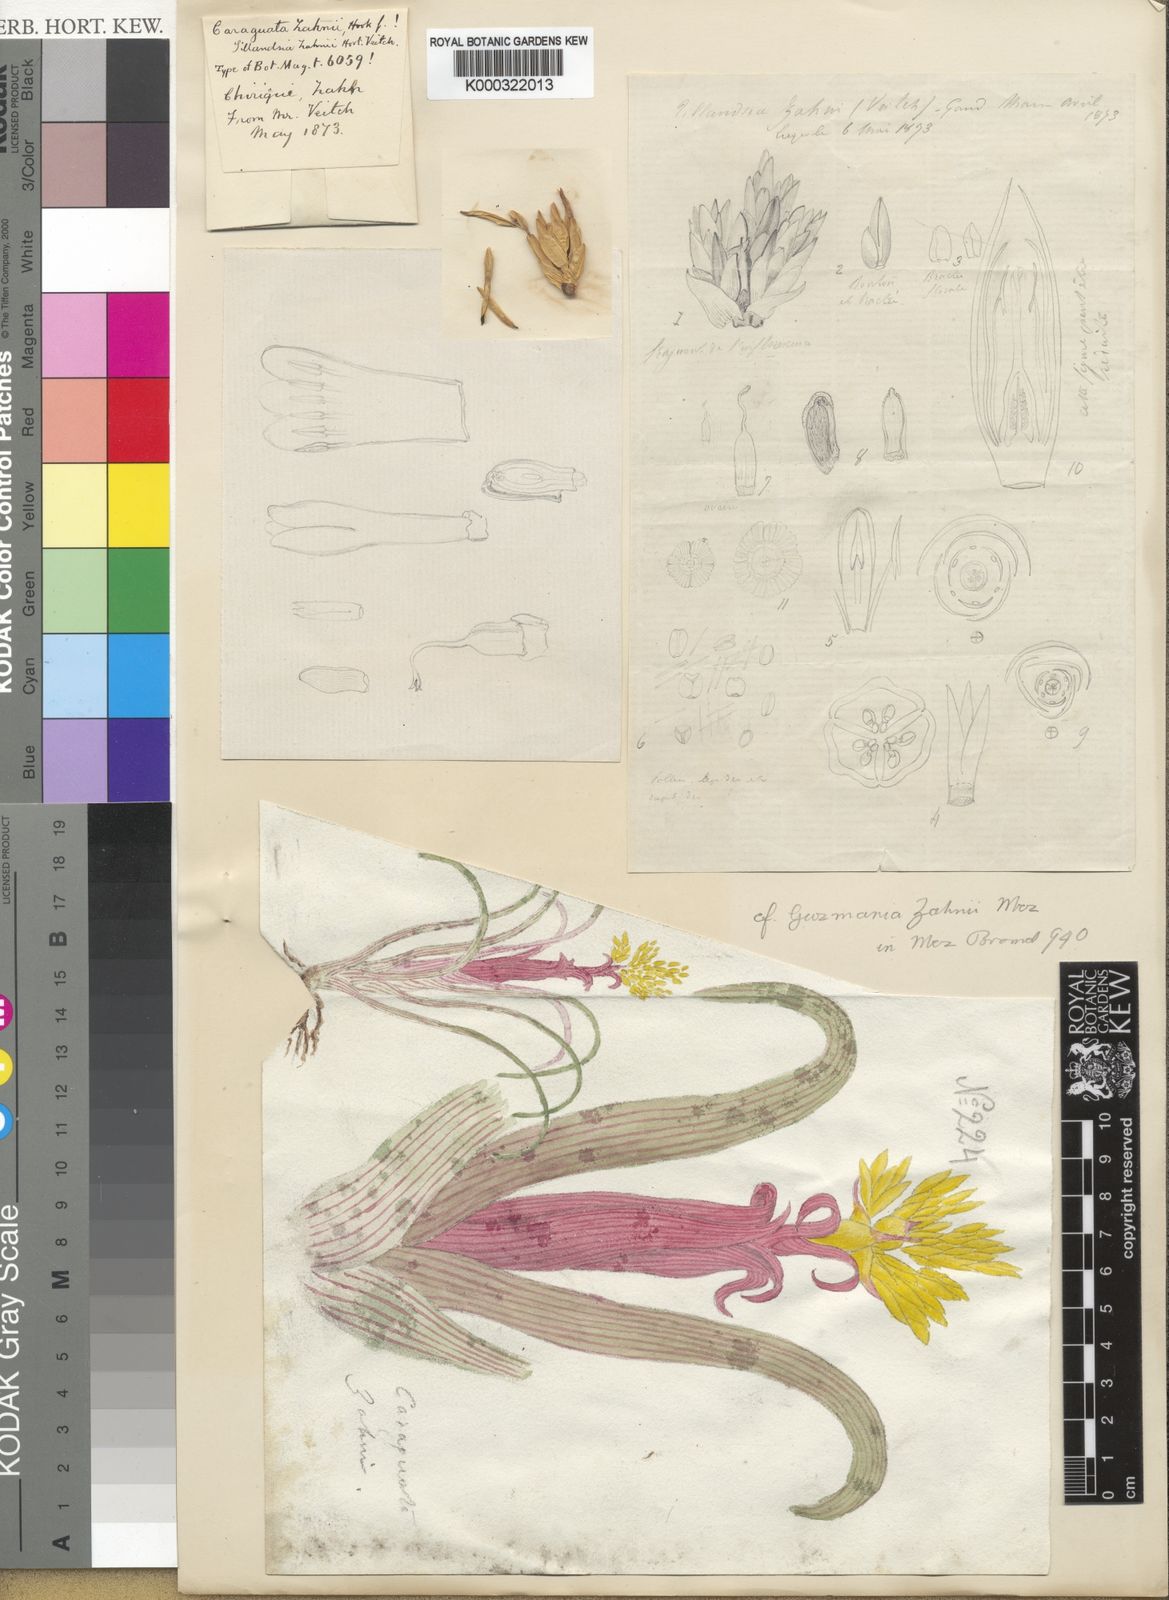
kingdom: Plantae
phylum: Tracheophyta
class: Liliopsida
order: Poales
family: Bromeliaceae
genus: Guzmania
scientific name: Guzmania zahnii
